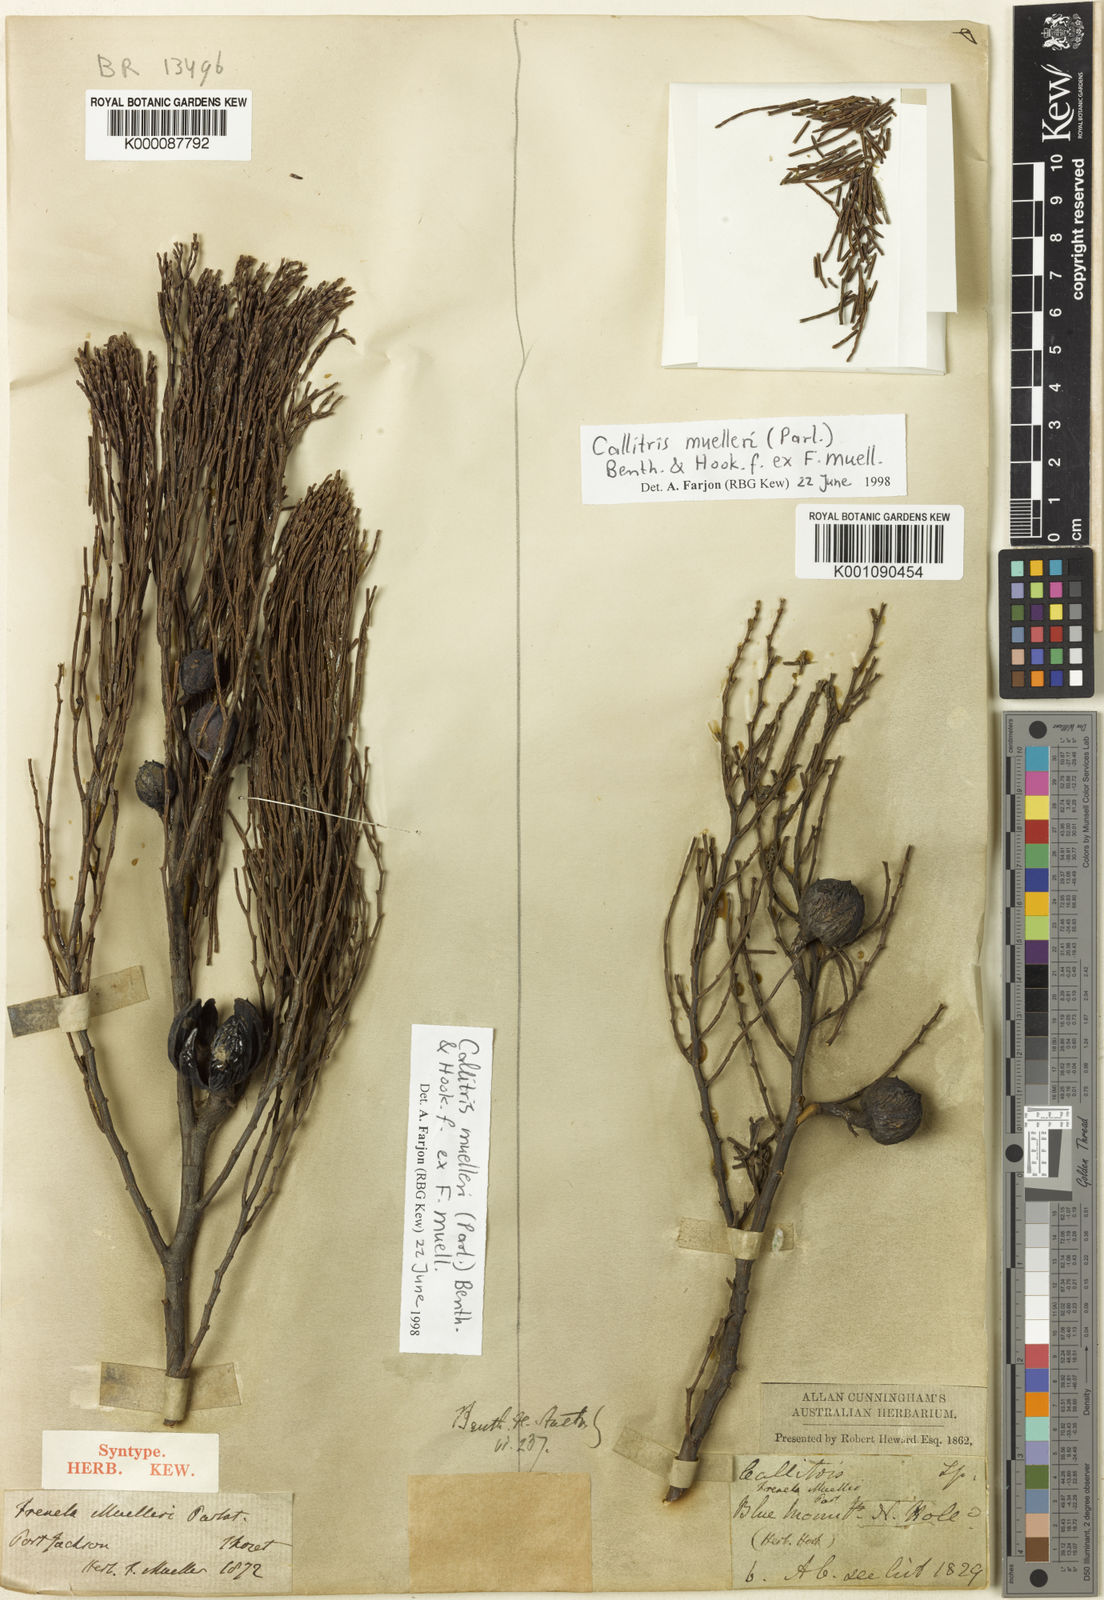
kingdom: Plantae
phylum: Tracheophyta
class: Pinopsida
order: Pinales
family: Cupressaceae
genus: Callitris
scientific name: Callitris muelleri
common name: Illawarra cypress-pine
